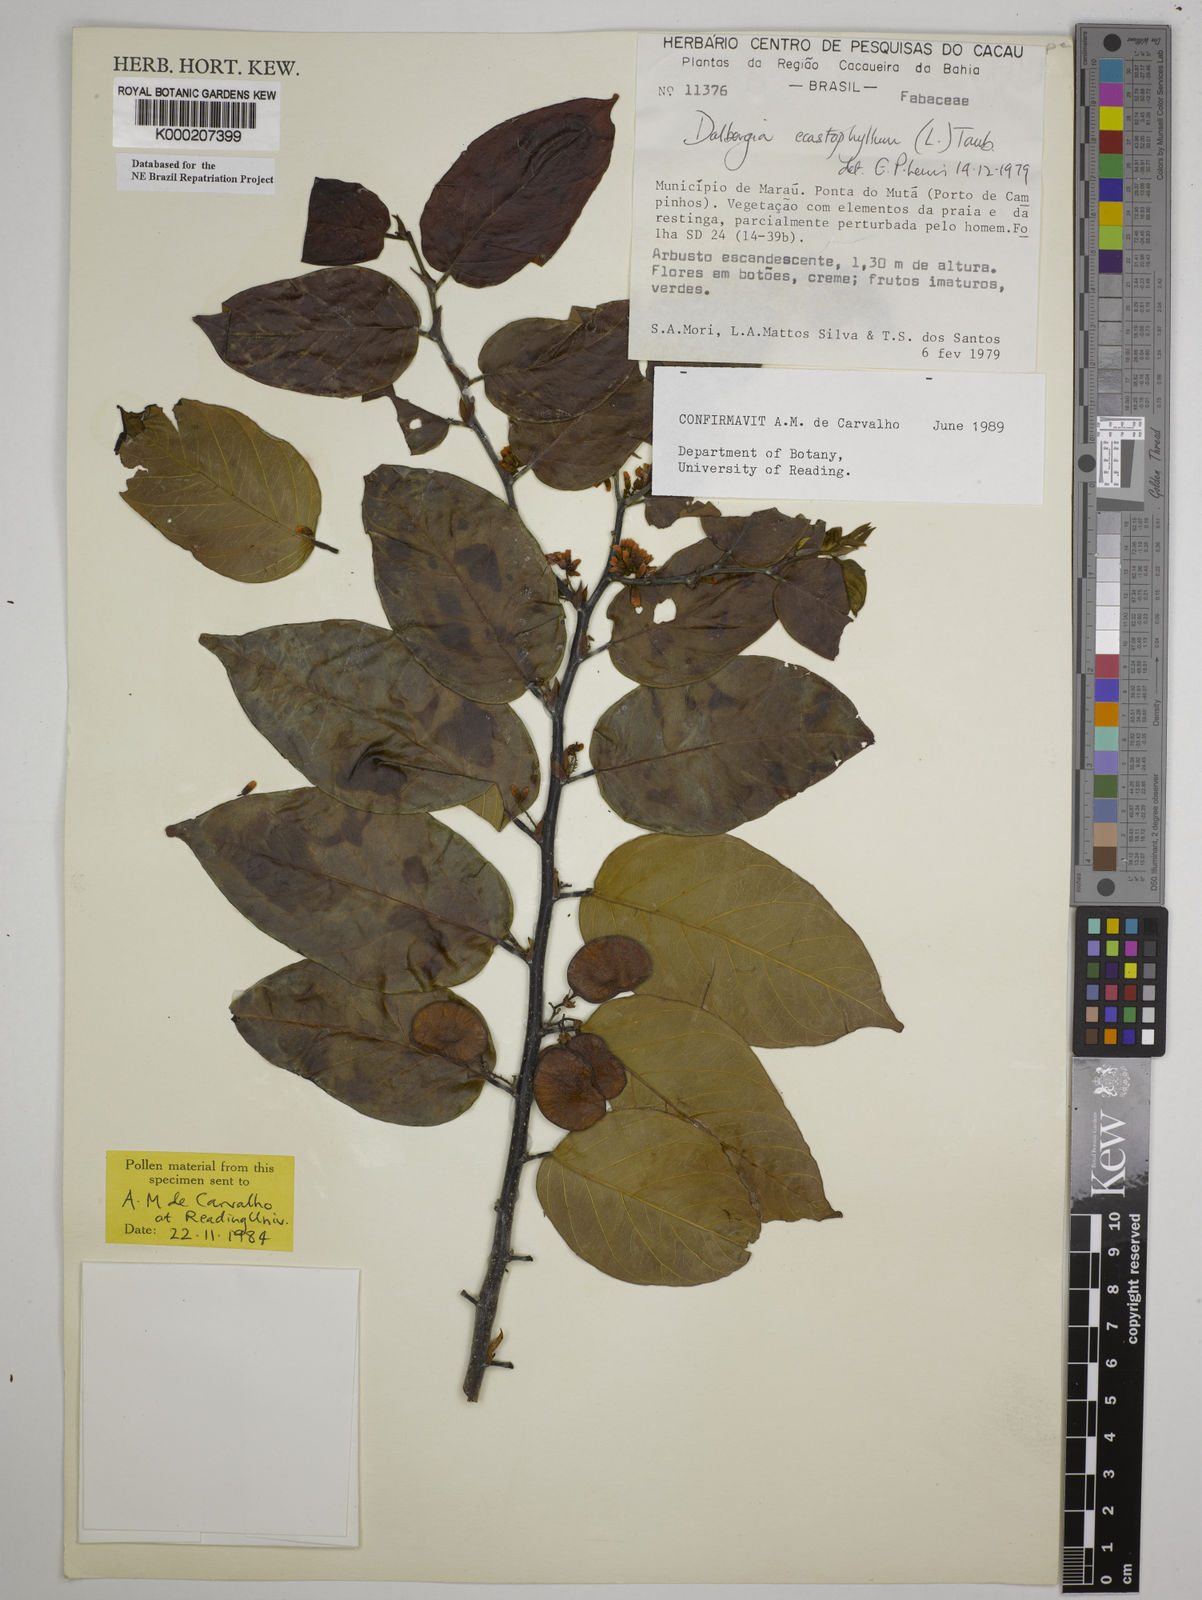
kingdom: Plantae
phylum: Tracheophyta
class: Magnoliopsida
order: Fabales
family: Fabaceae
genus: Dalbergia
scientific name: Dalbergia
